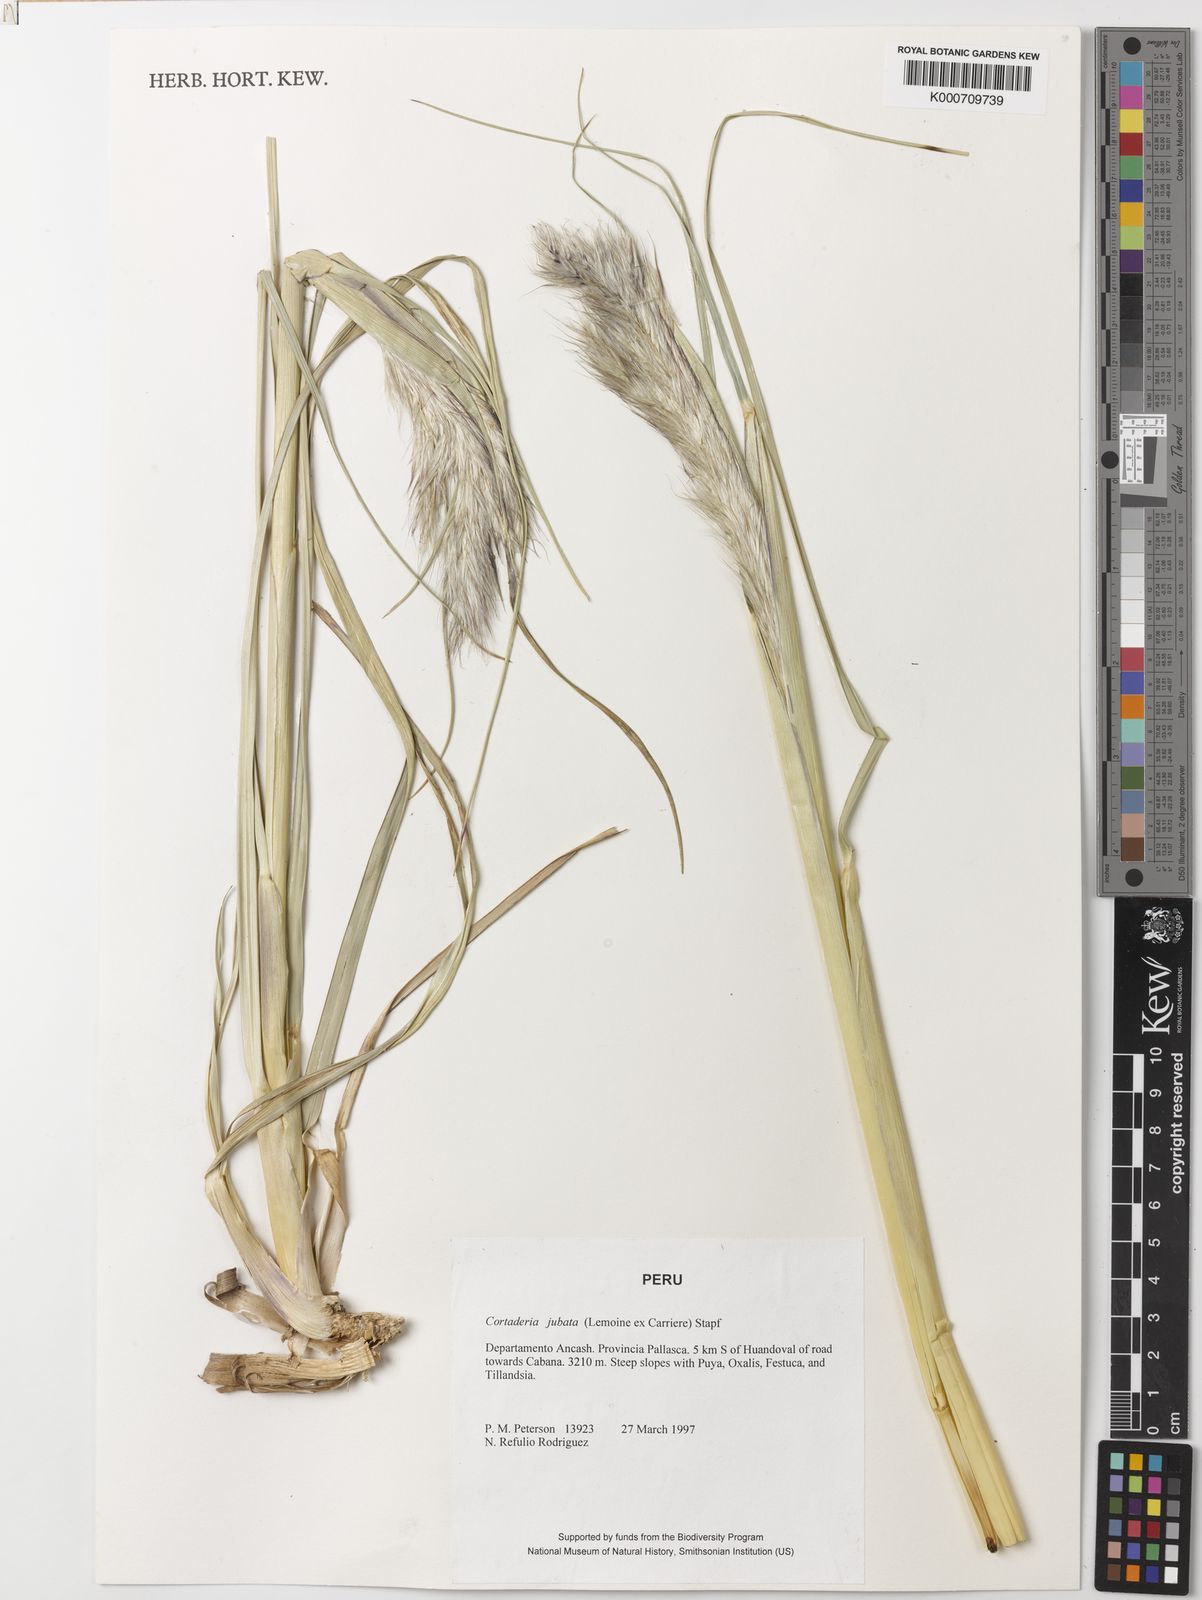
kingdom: Plantae
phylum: Tracheophyta
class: Liliopsida
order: Poales
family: Poaceae
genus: Cortaderia
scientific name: Cortaderia jubata
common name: Purple pampas grass
